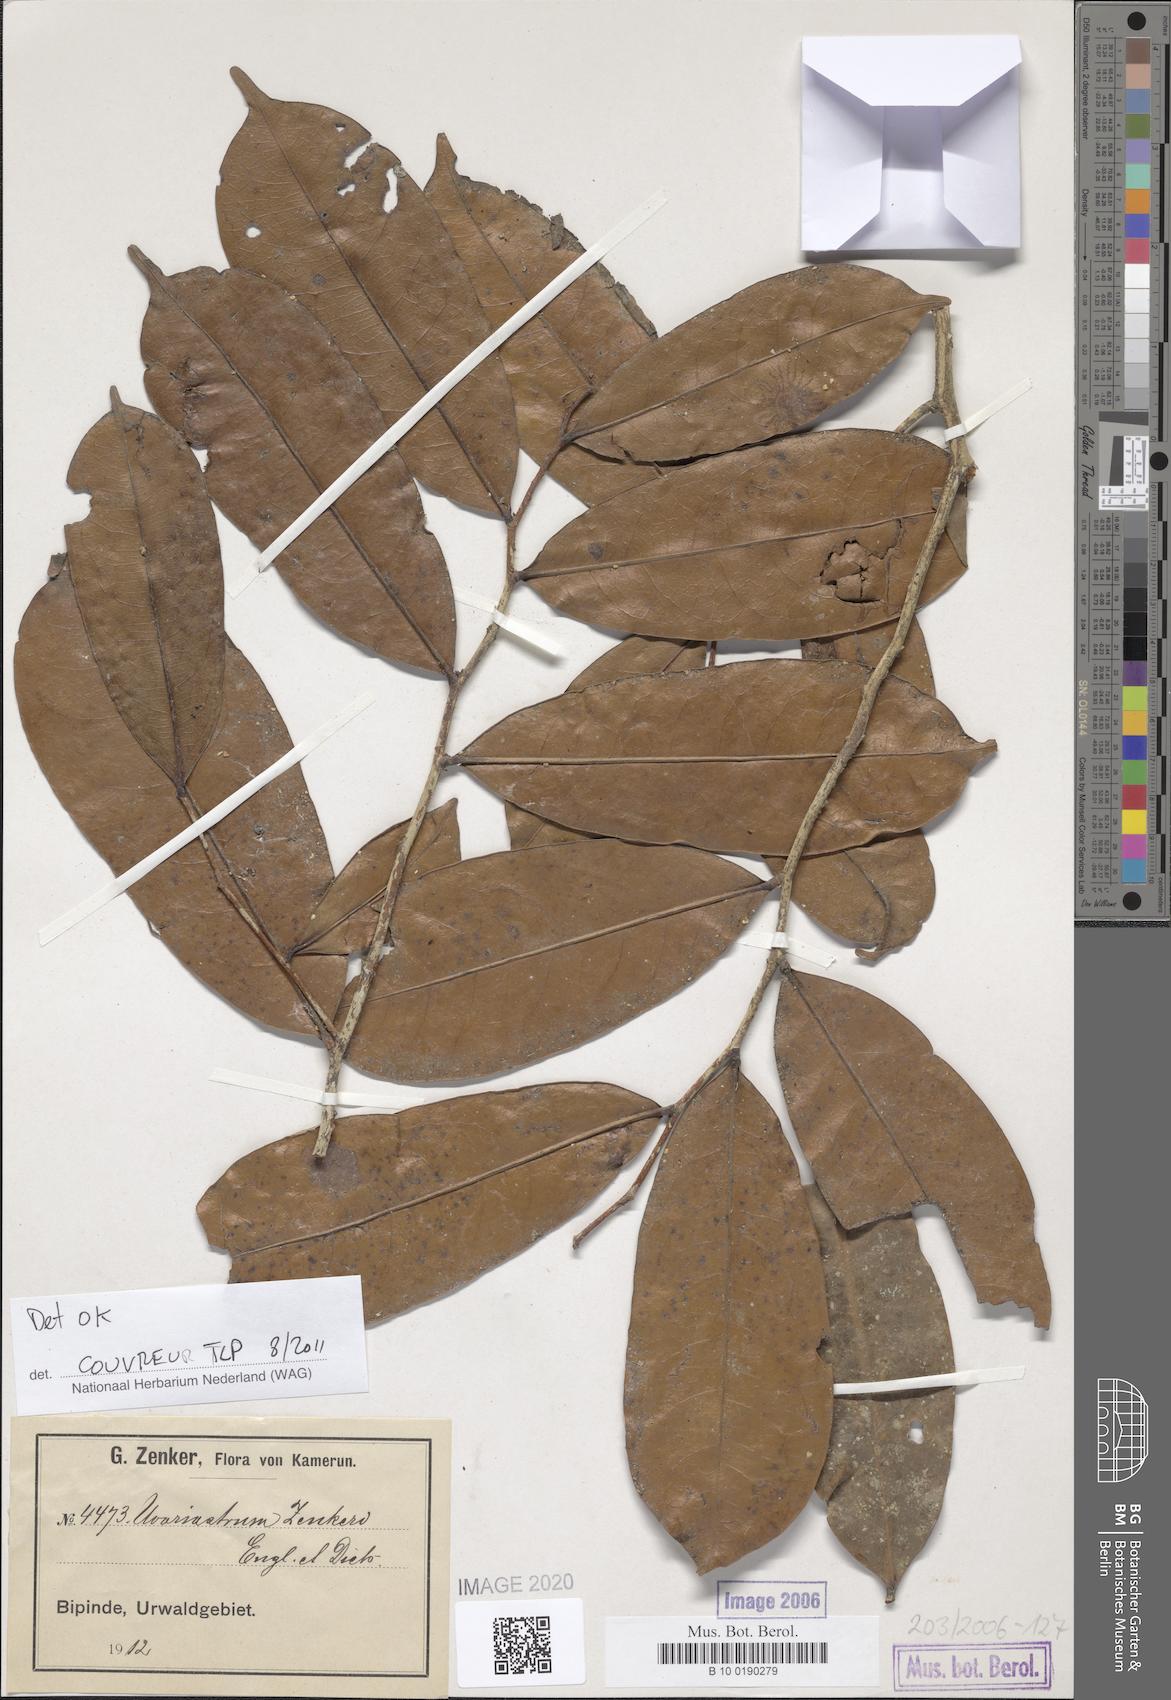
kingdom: Plantae
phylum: Tracheophyta
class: Magnoliopsida
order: Magnoliales
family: Annonaceae
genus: Uvariastrum
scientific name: Uvariastrum zenkeri
